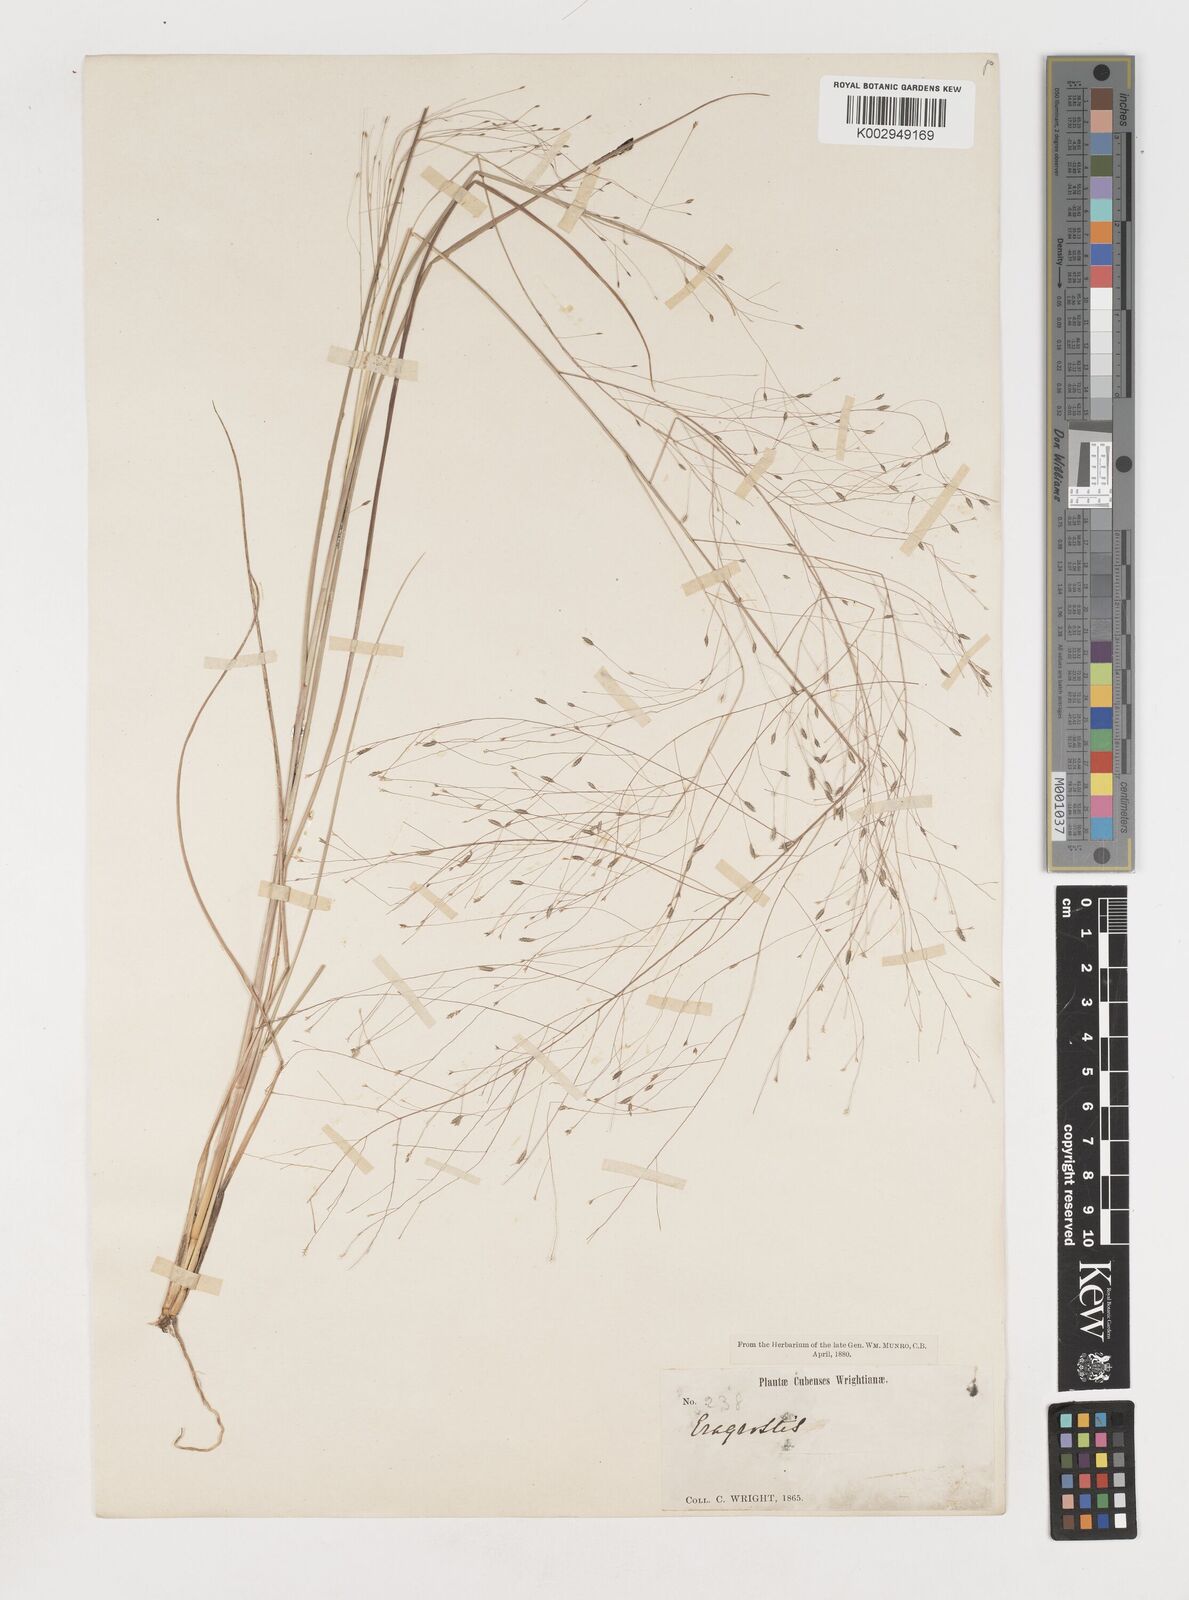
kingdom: Plantae
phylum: Tracheophyta
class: Liliopsida
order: Poales
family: Poaceae
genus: Eragrostis
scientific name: Eragrostis elliottii
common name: Elliott's love grass
